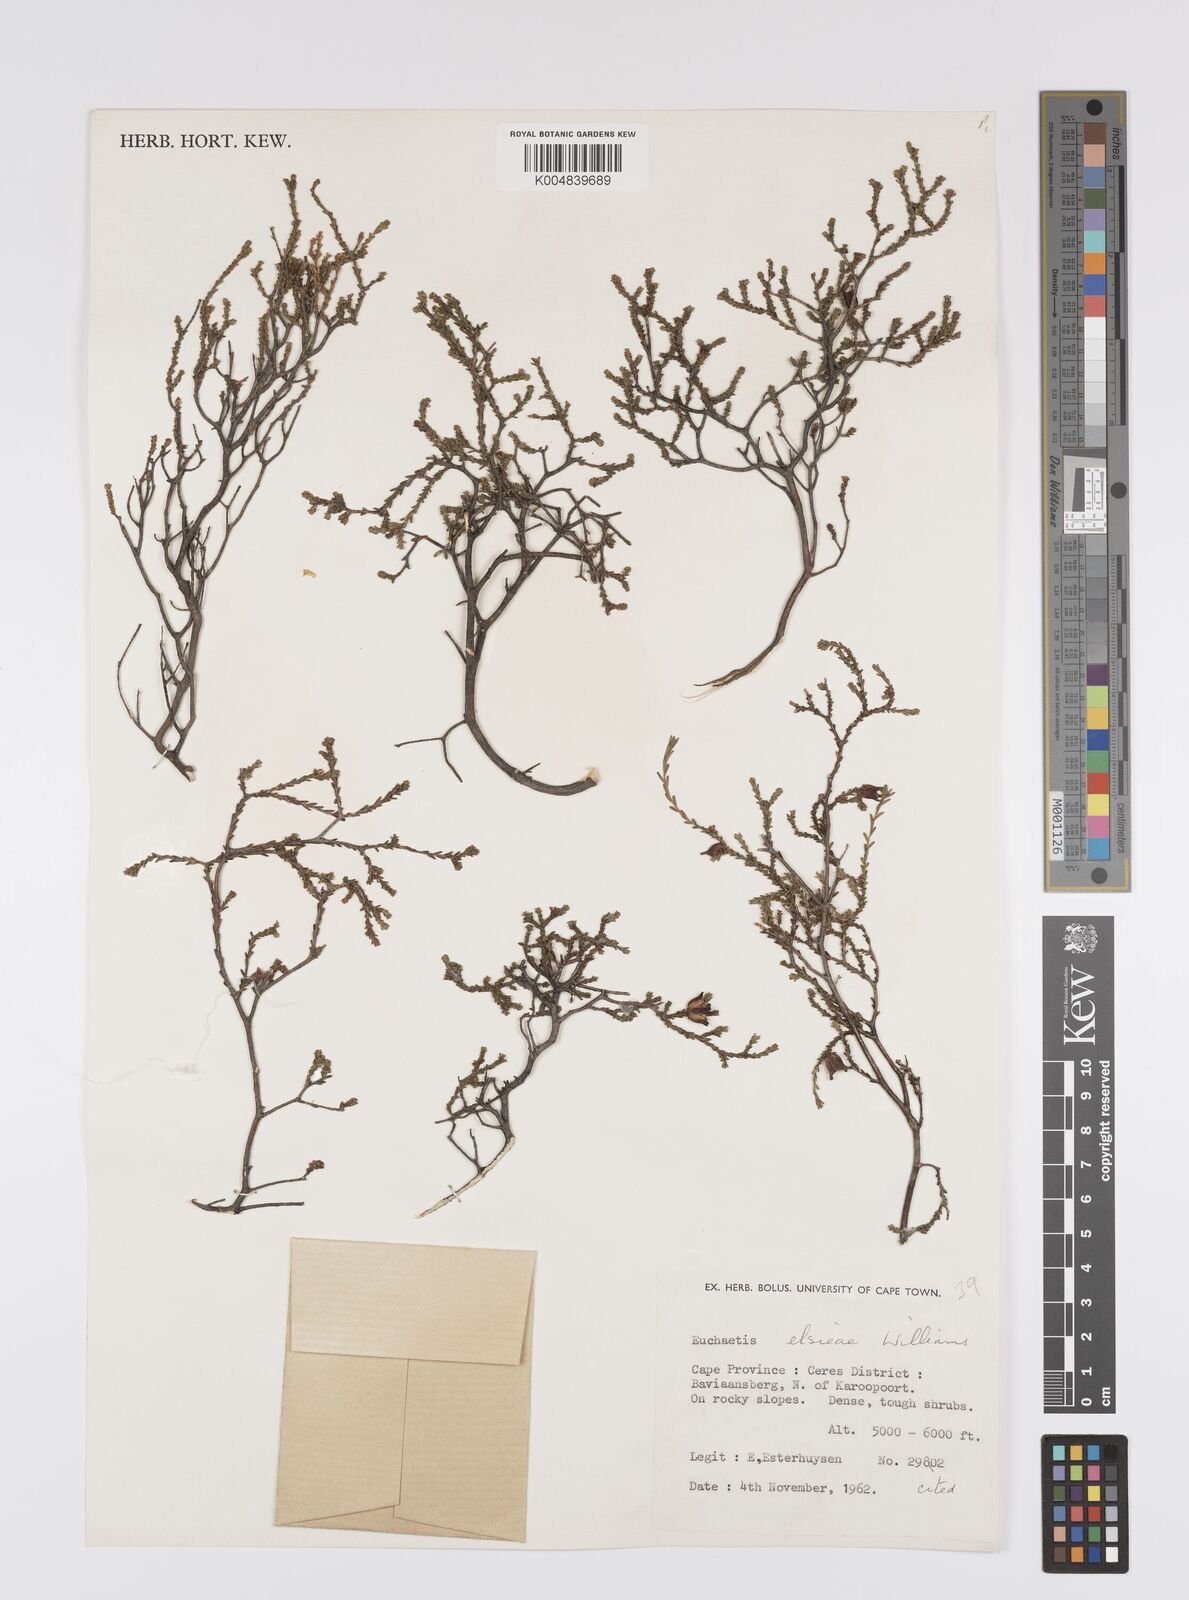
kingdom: Plantae
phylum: Tracheophyta
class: Magnoliopsida
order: Sapindales
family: Rutaceae
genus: Euchaetis
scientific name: Euchaetis elsieae
